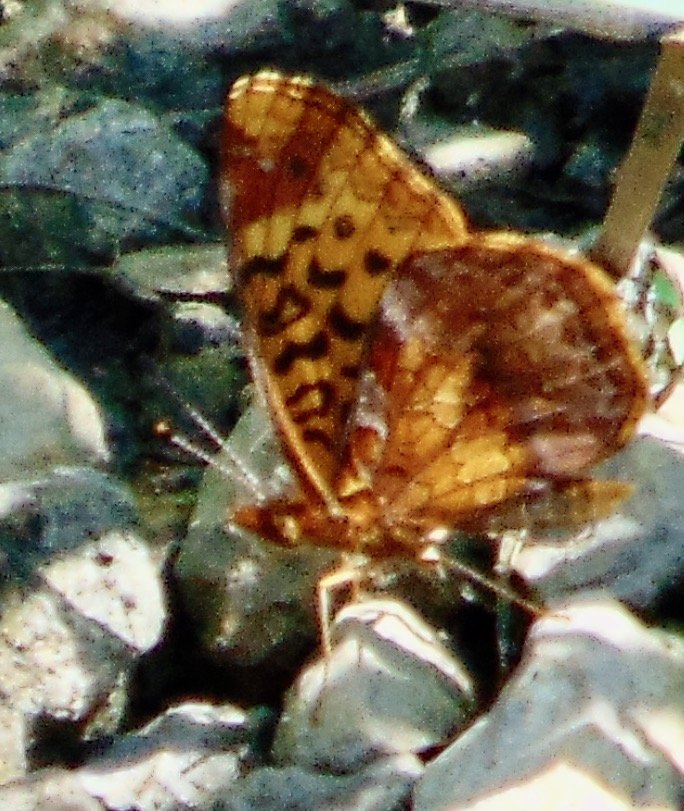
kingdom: Animalia
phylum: Arthropoda
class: Insecta
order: Lepidoptera
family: Nymphalidae
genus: Clossiana
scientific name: Clossiana toddi
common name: Meadow Fritillary
